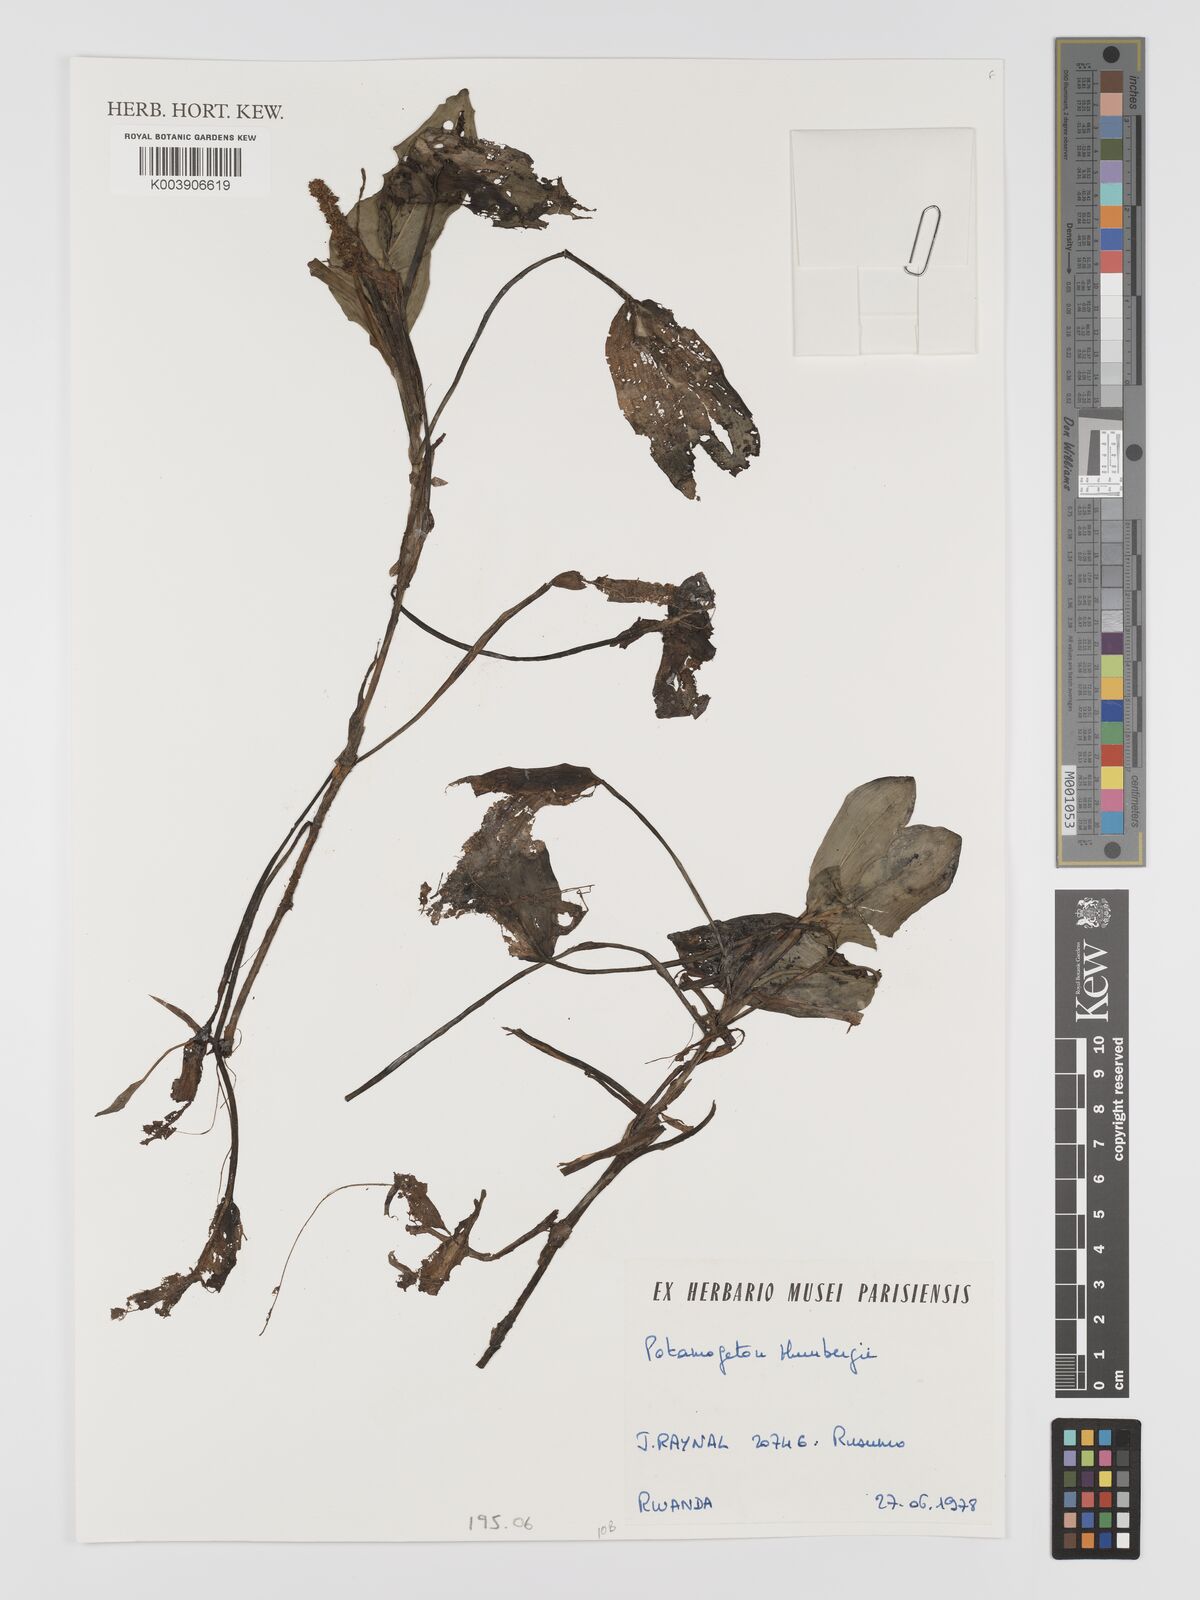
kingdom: Plantae
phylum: Tracheophyta
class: Liliopsida
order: Alismatales
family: Potamogetonaceae
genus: Potamogeton
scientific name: Potamogeton nodosus
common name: Loddon pondweed
